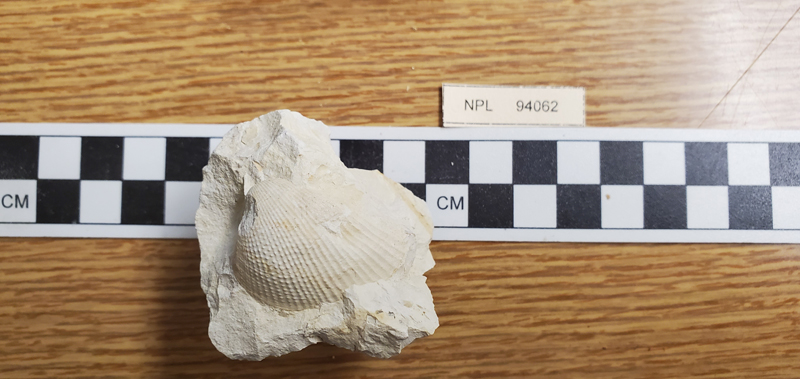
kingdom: Animalia
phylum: Mollusca
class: Bivalvia
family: Pholadomyidae
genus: Pholadomya
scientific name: Pholadomya
